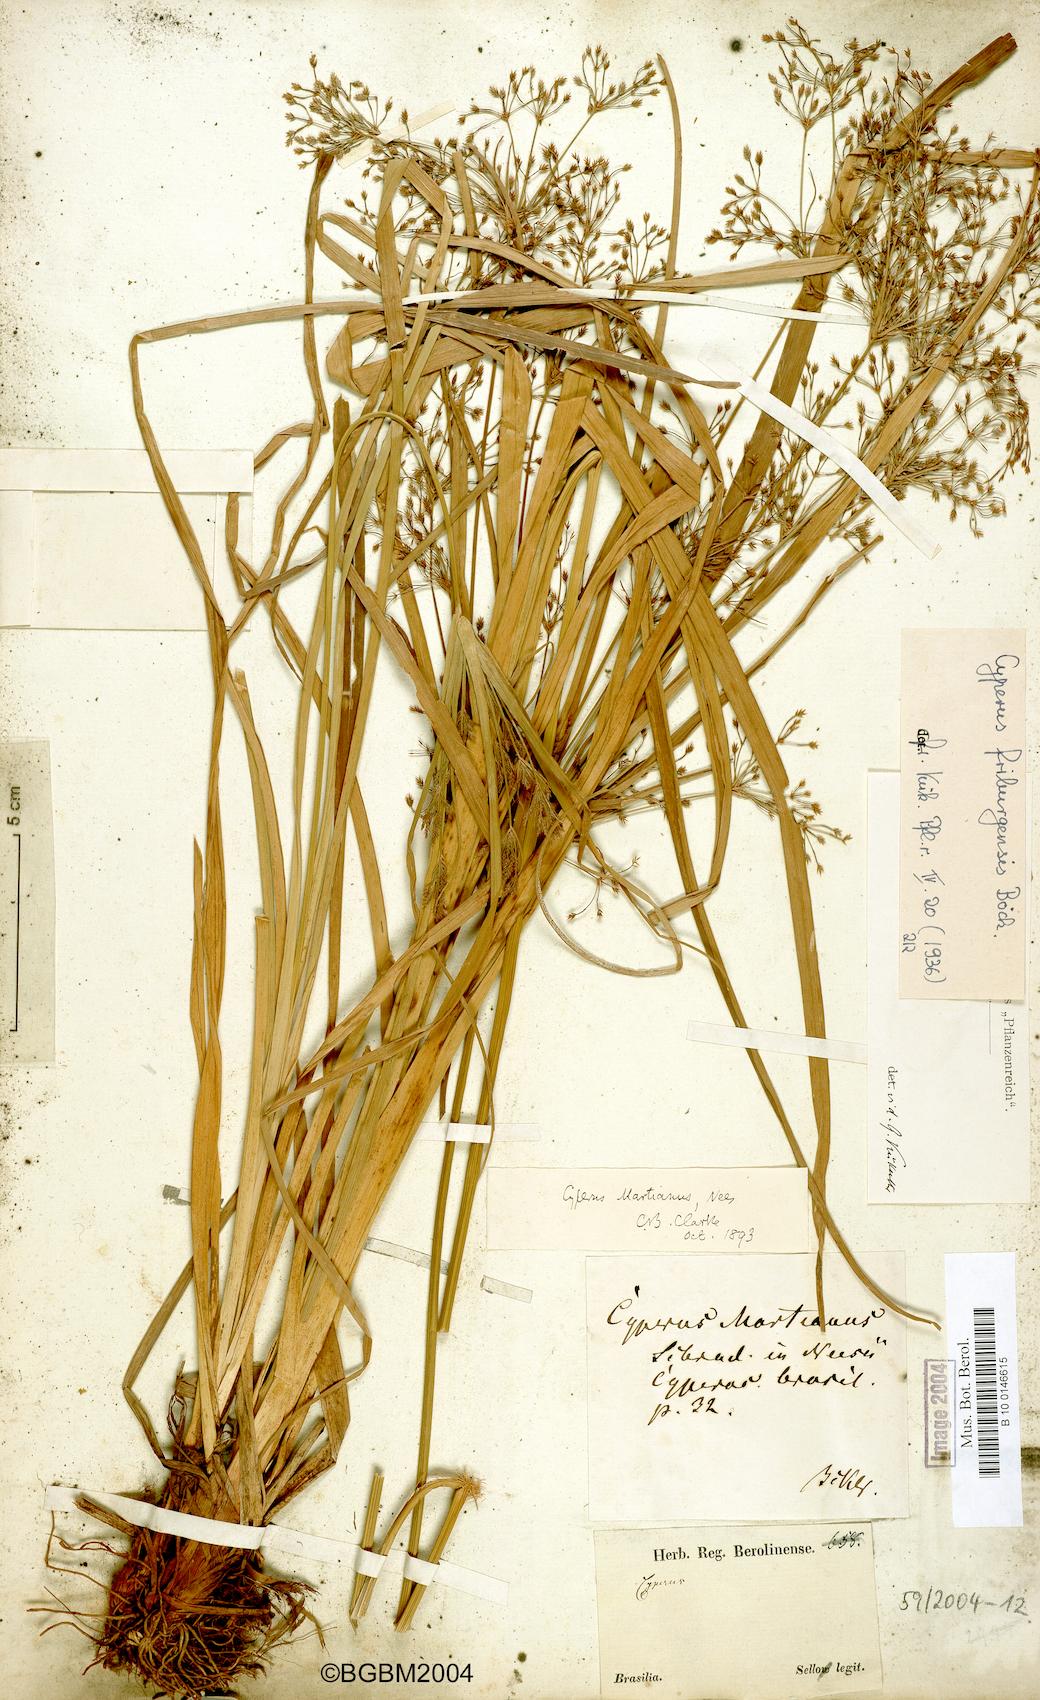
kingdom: Plantae
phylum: Tracheophyta
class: Liliopsida
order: Poales
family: Cyperaceae
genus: Cyperus
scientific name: Cyperus friburgensis
